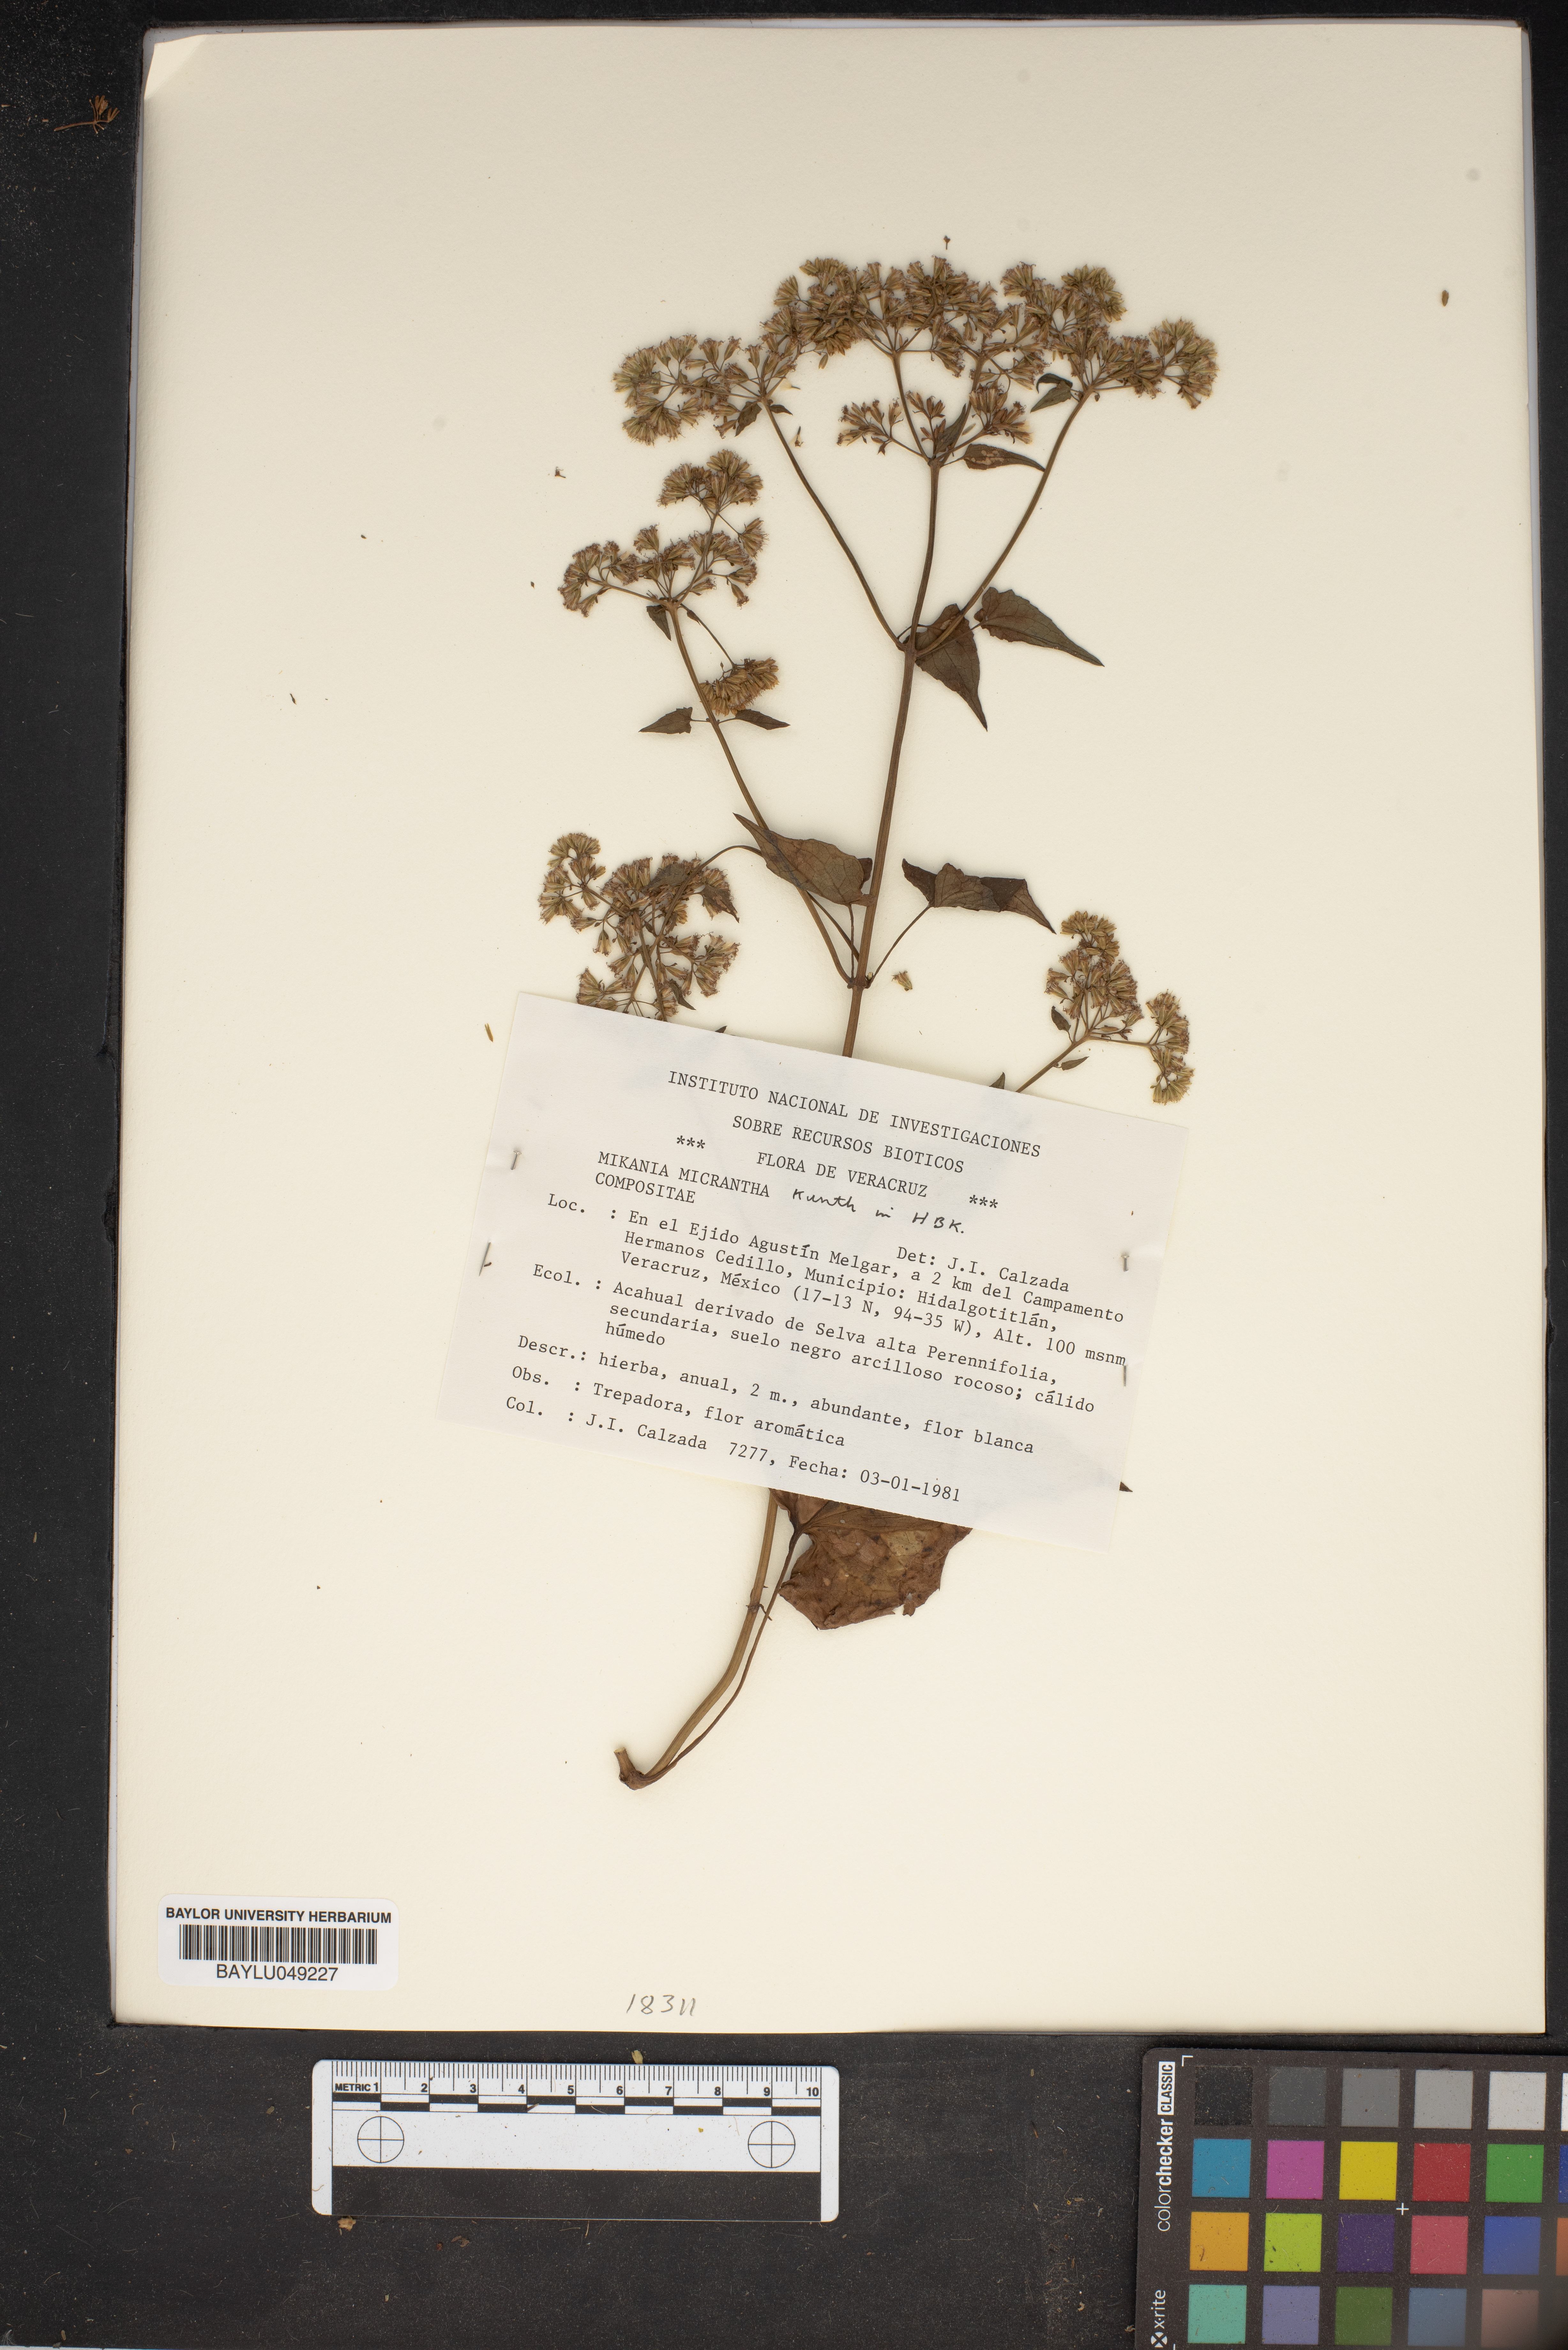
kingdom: Plantae
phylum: Tracheophyta
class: Magnoliopsida
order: Asterales
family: Asteraceae
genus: Mikania
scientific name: Mikania micrantha
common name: Mile-a-minute
